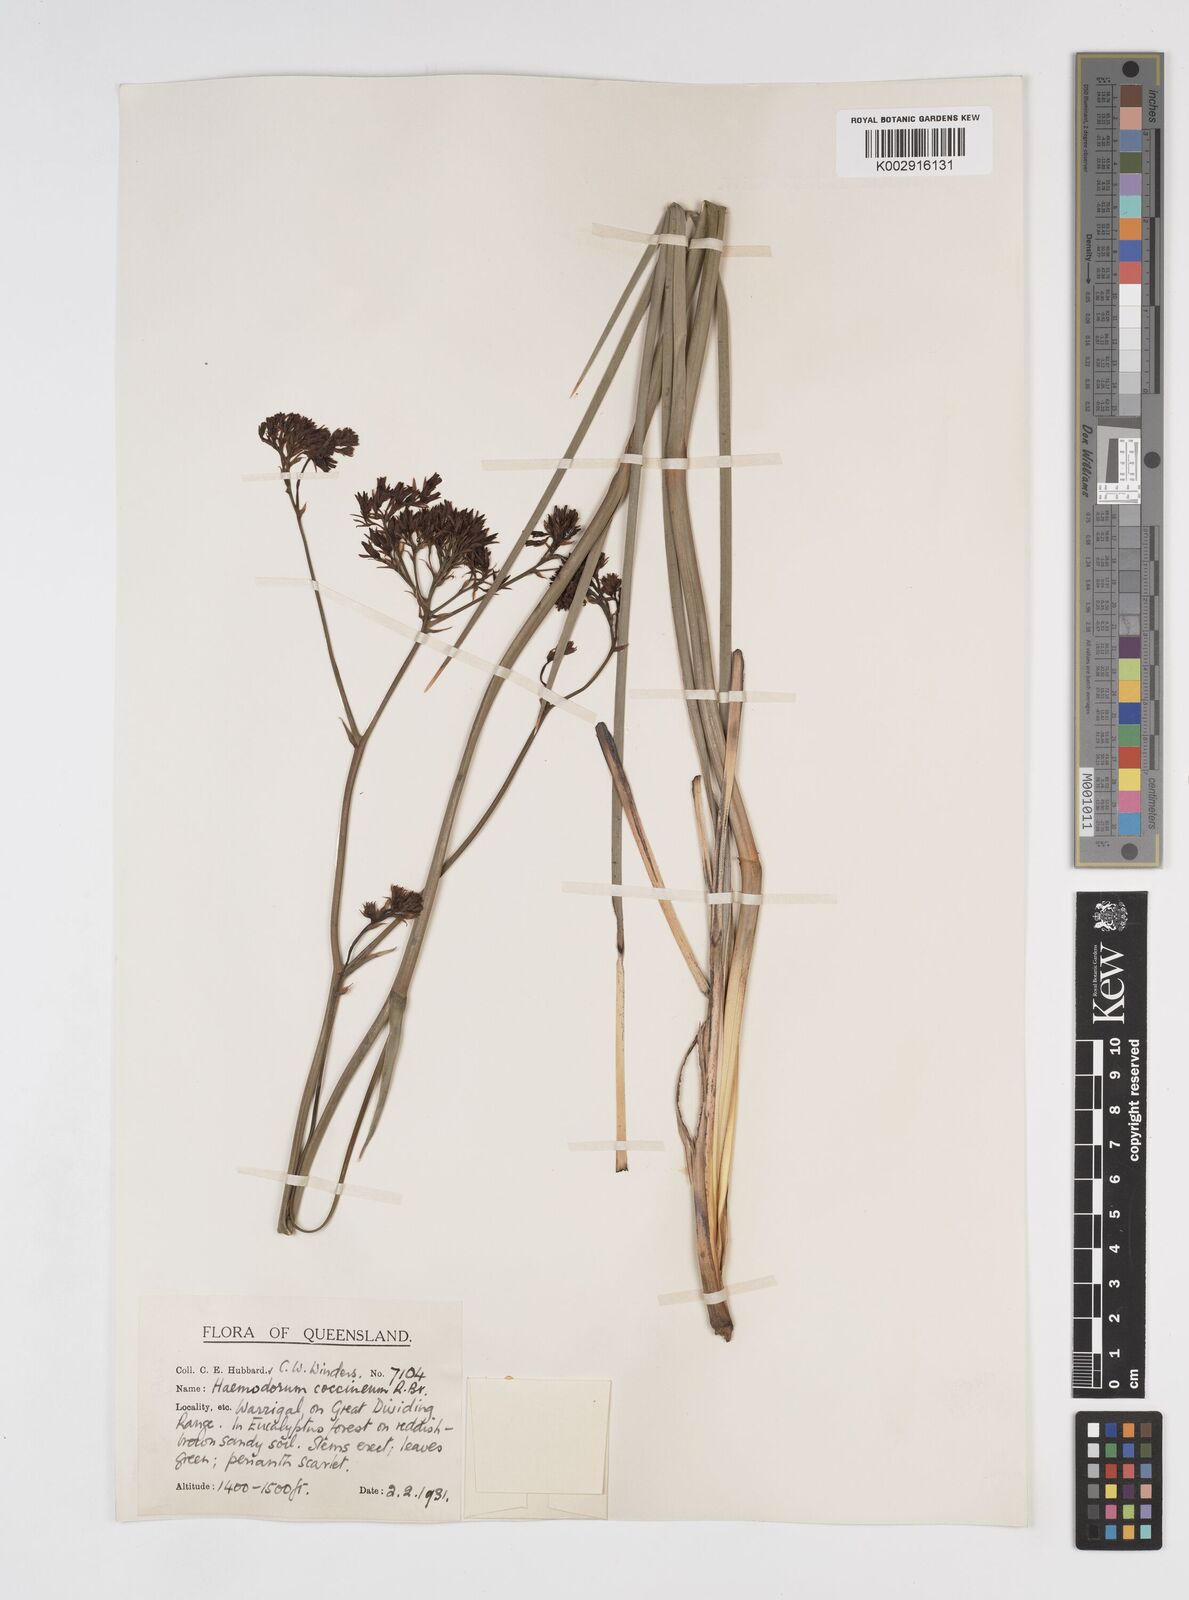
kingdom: Plantae
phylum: Tracheophyta
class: Liliopsida
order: Commelinales
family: Haemodoraceae
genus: Haemodorum
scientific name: Haemodorum coccineum
